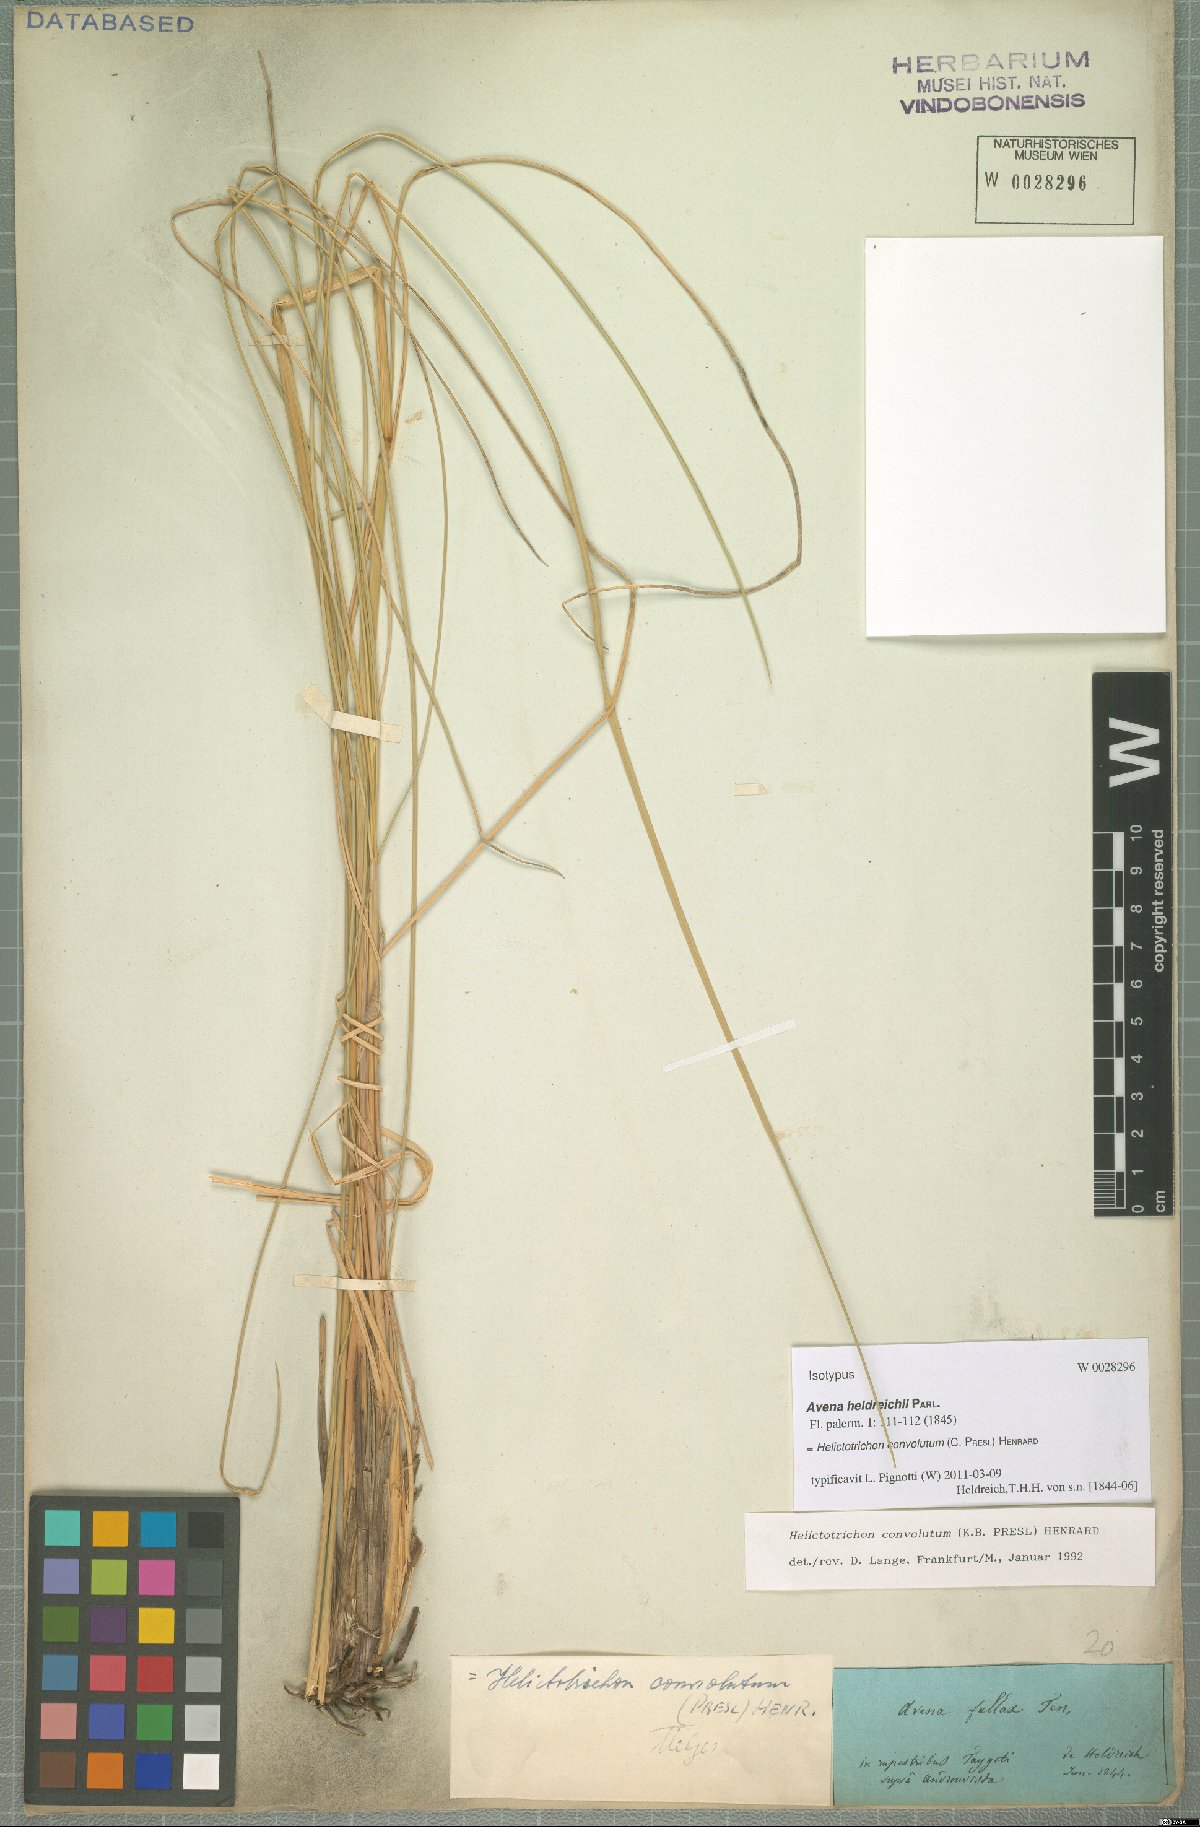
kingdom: Plantae
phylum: Tracheophyta
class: Liliopsida
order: Poales
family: Poaceae
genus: Helictotrichon
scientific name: Helictotrichon convolutum
